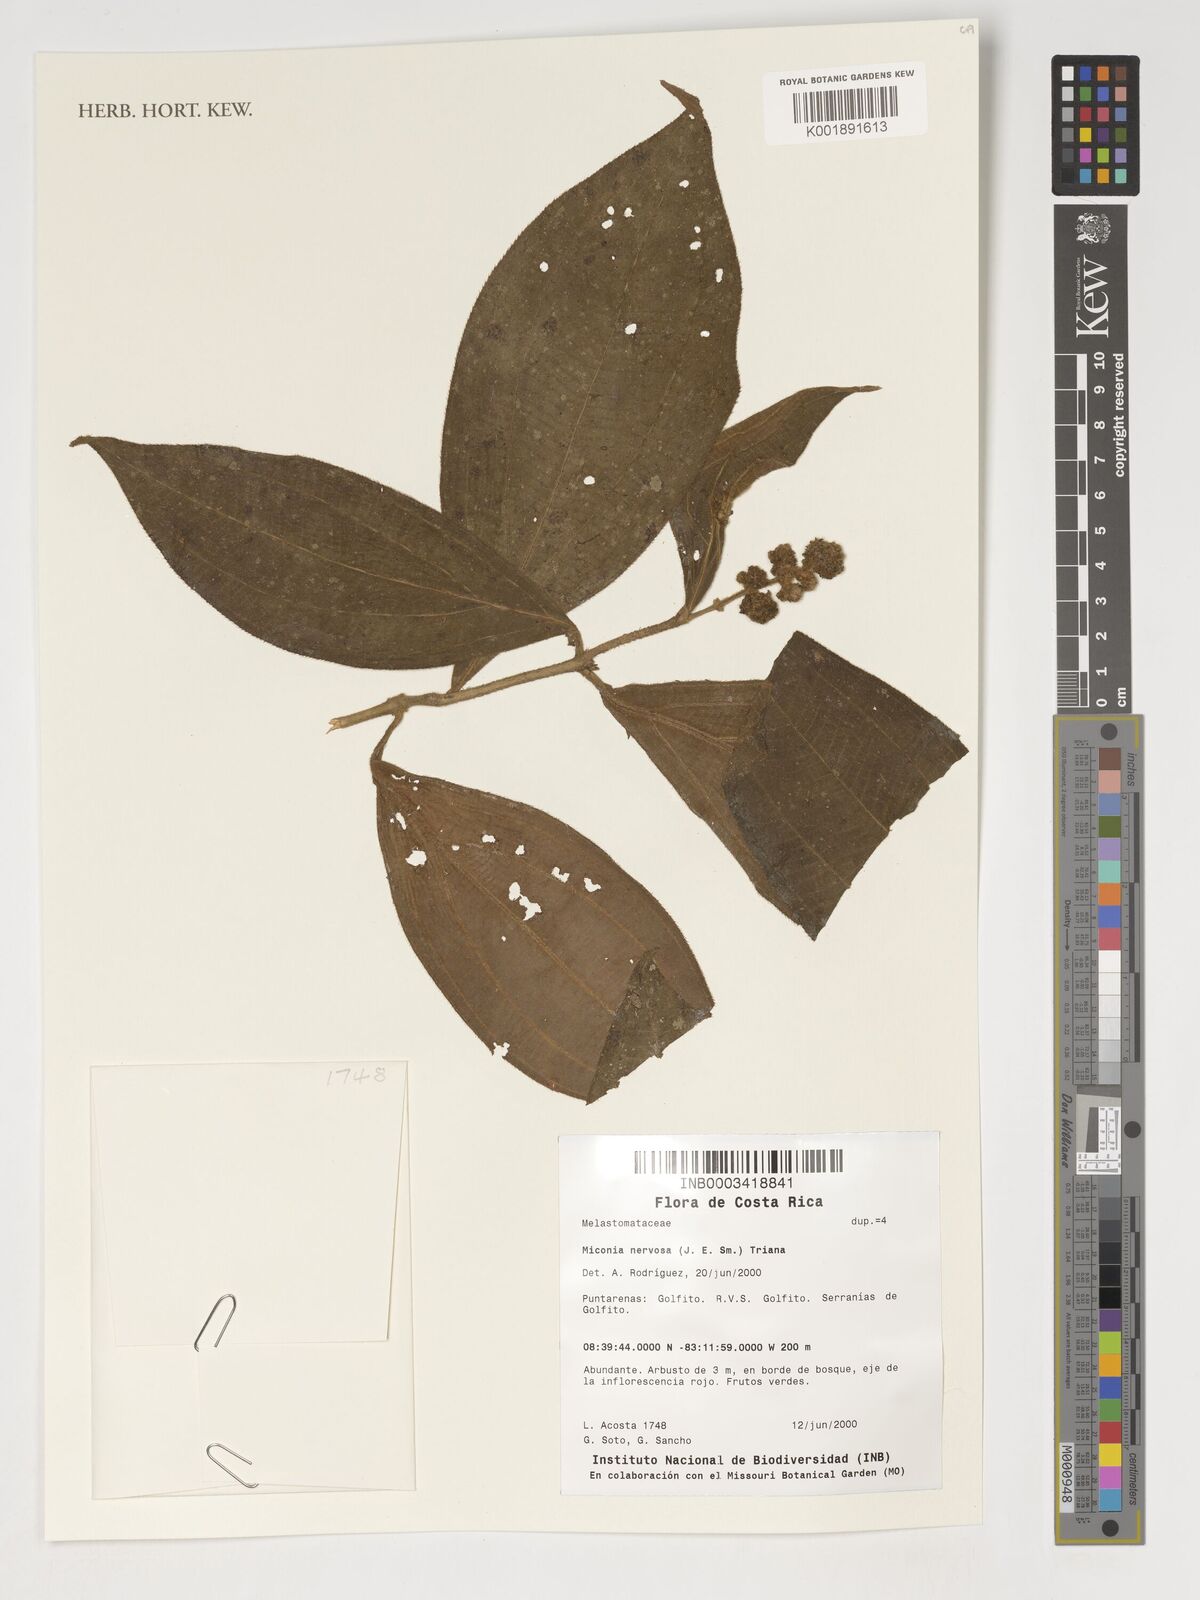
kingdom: Plantae
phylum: Tracheophyta
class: Magnoliopsida
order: Myrtales
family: Melastomataceae
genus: Miconia
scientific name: Miconia nervosa
